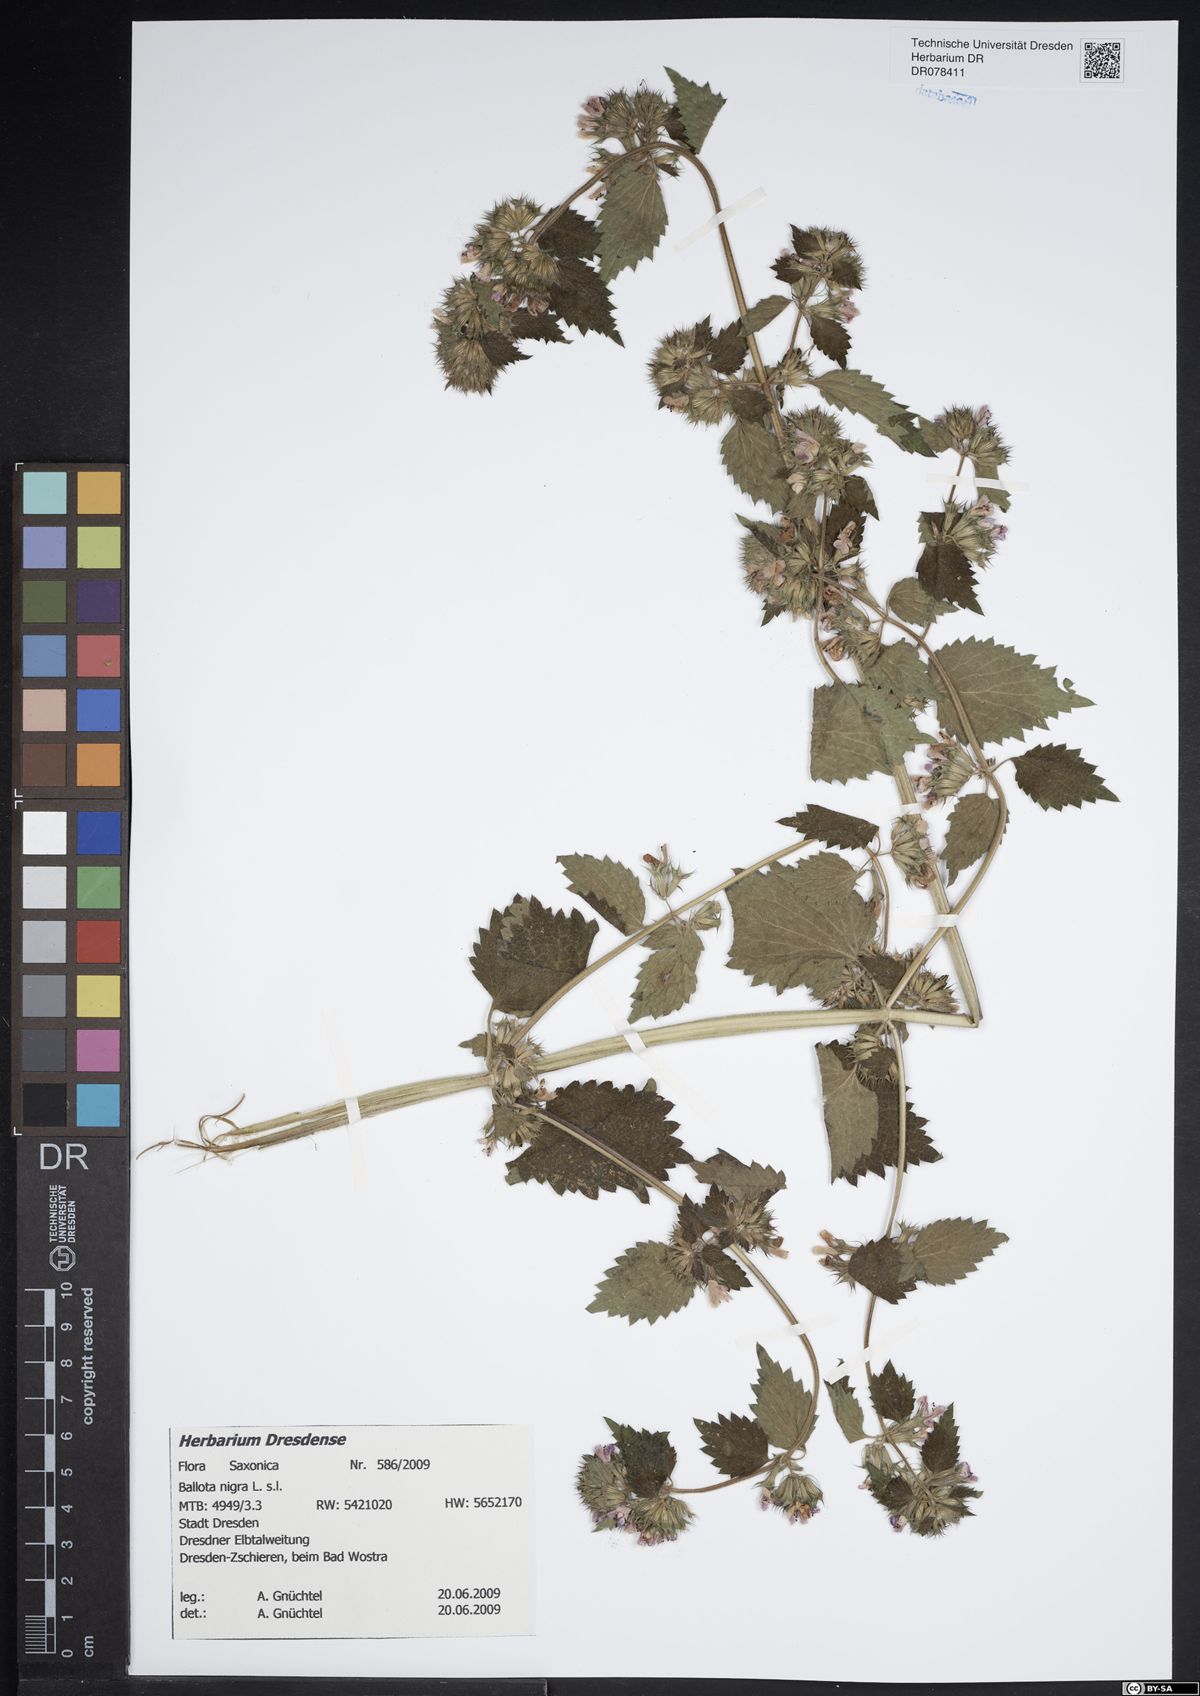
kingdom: Plantae
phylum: Tracheophyta
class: Magnoliopsida
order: Lamiales
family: Lamiaceae
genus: Ballota
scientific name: Ballota nigra
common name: Black horehound
